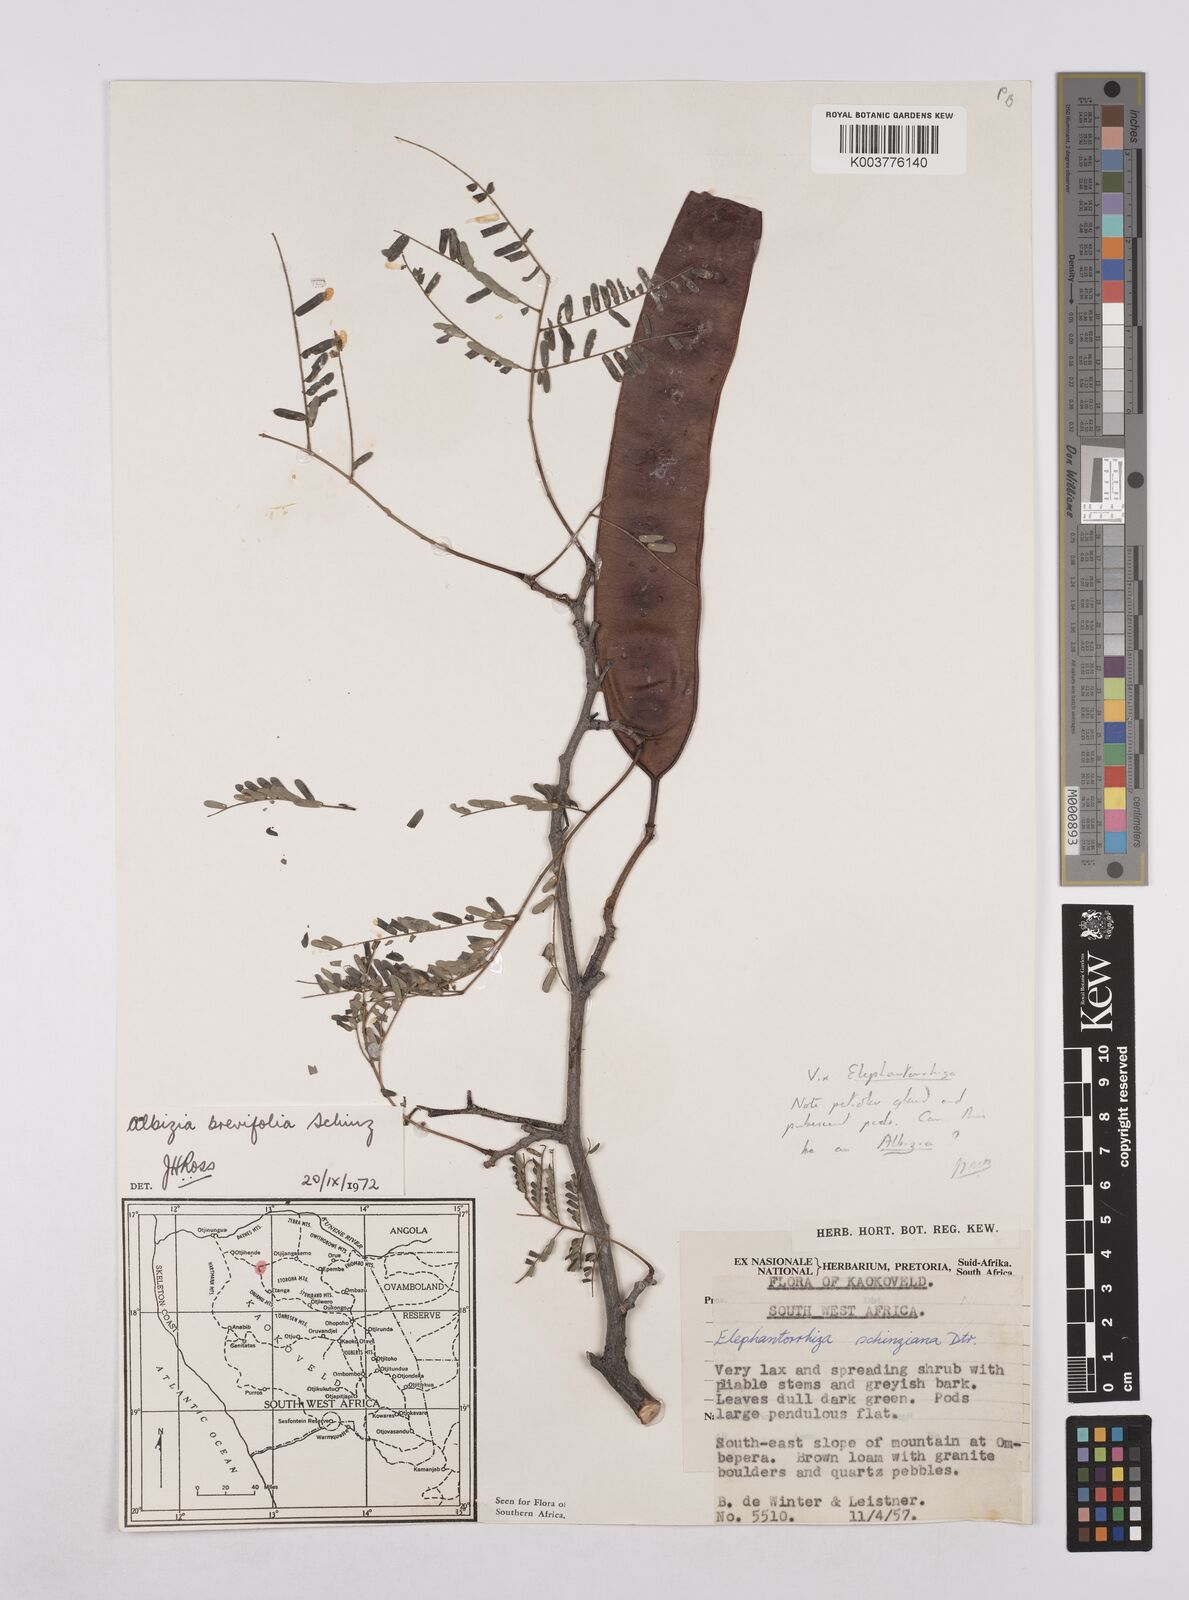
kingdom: Plantae
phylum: Tracheophyta
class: Magnoliopsida
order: Fabales
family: Fabaceae
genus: Albizia
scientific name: Albizia brevifolia
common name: Rock false-thorn
